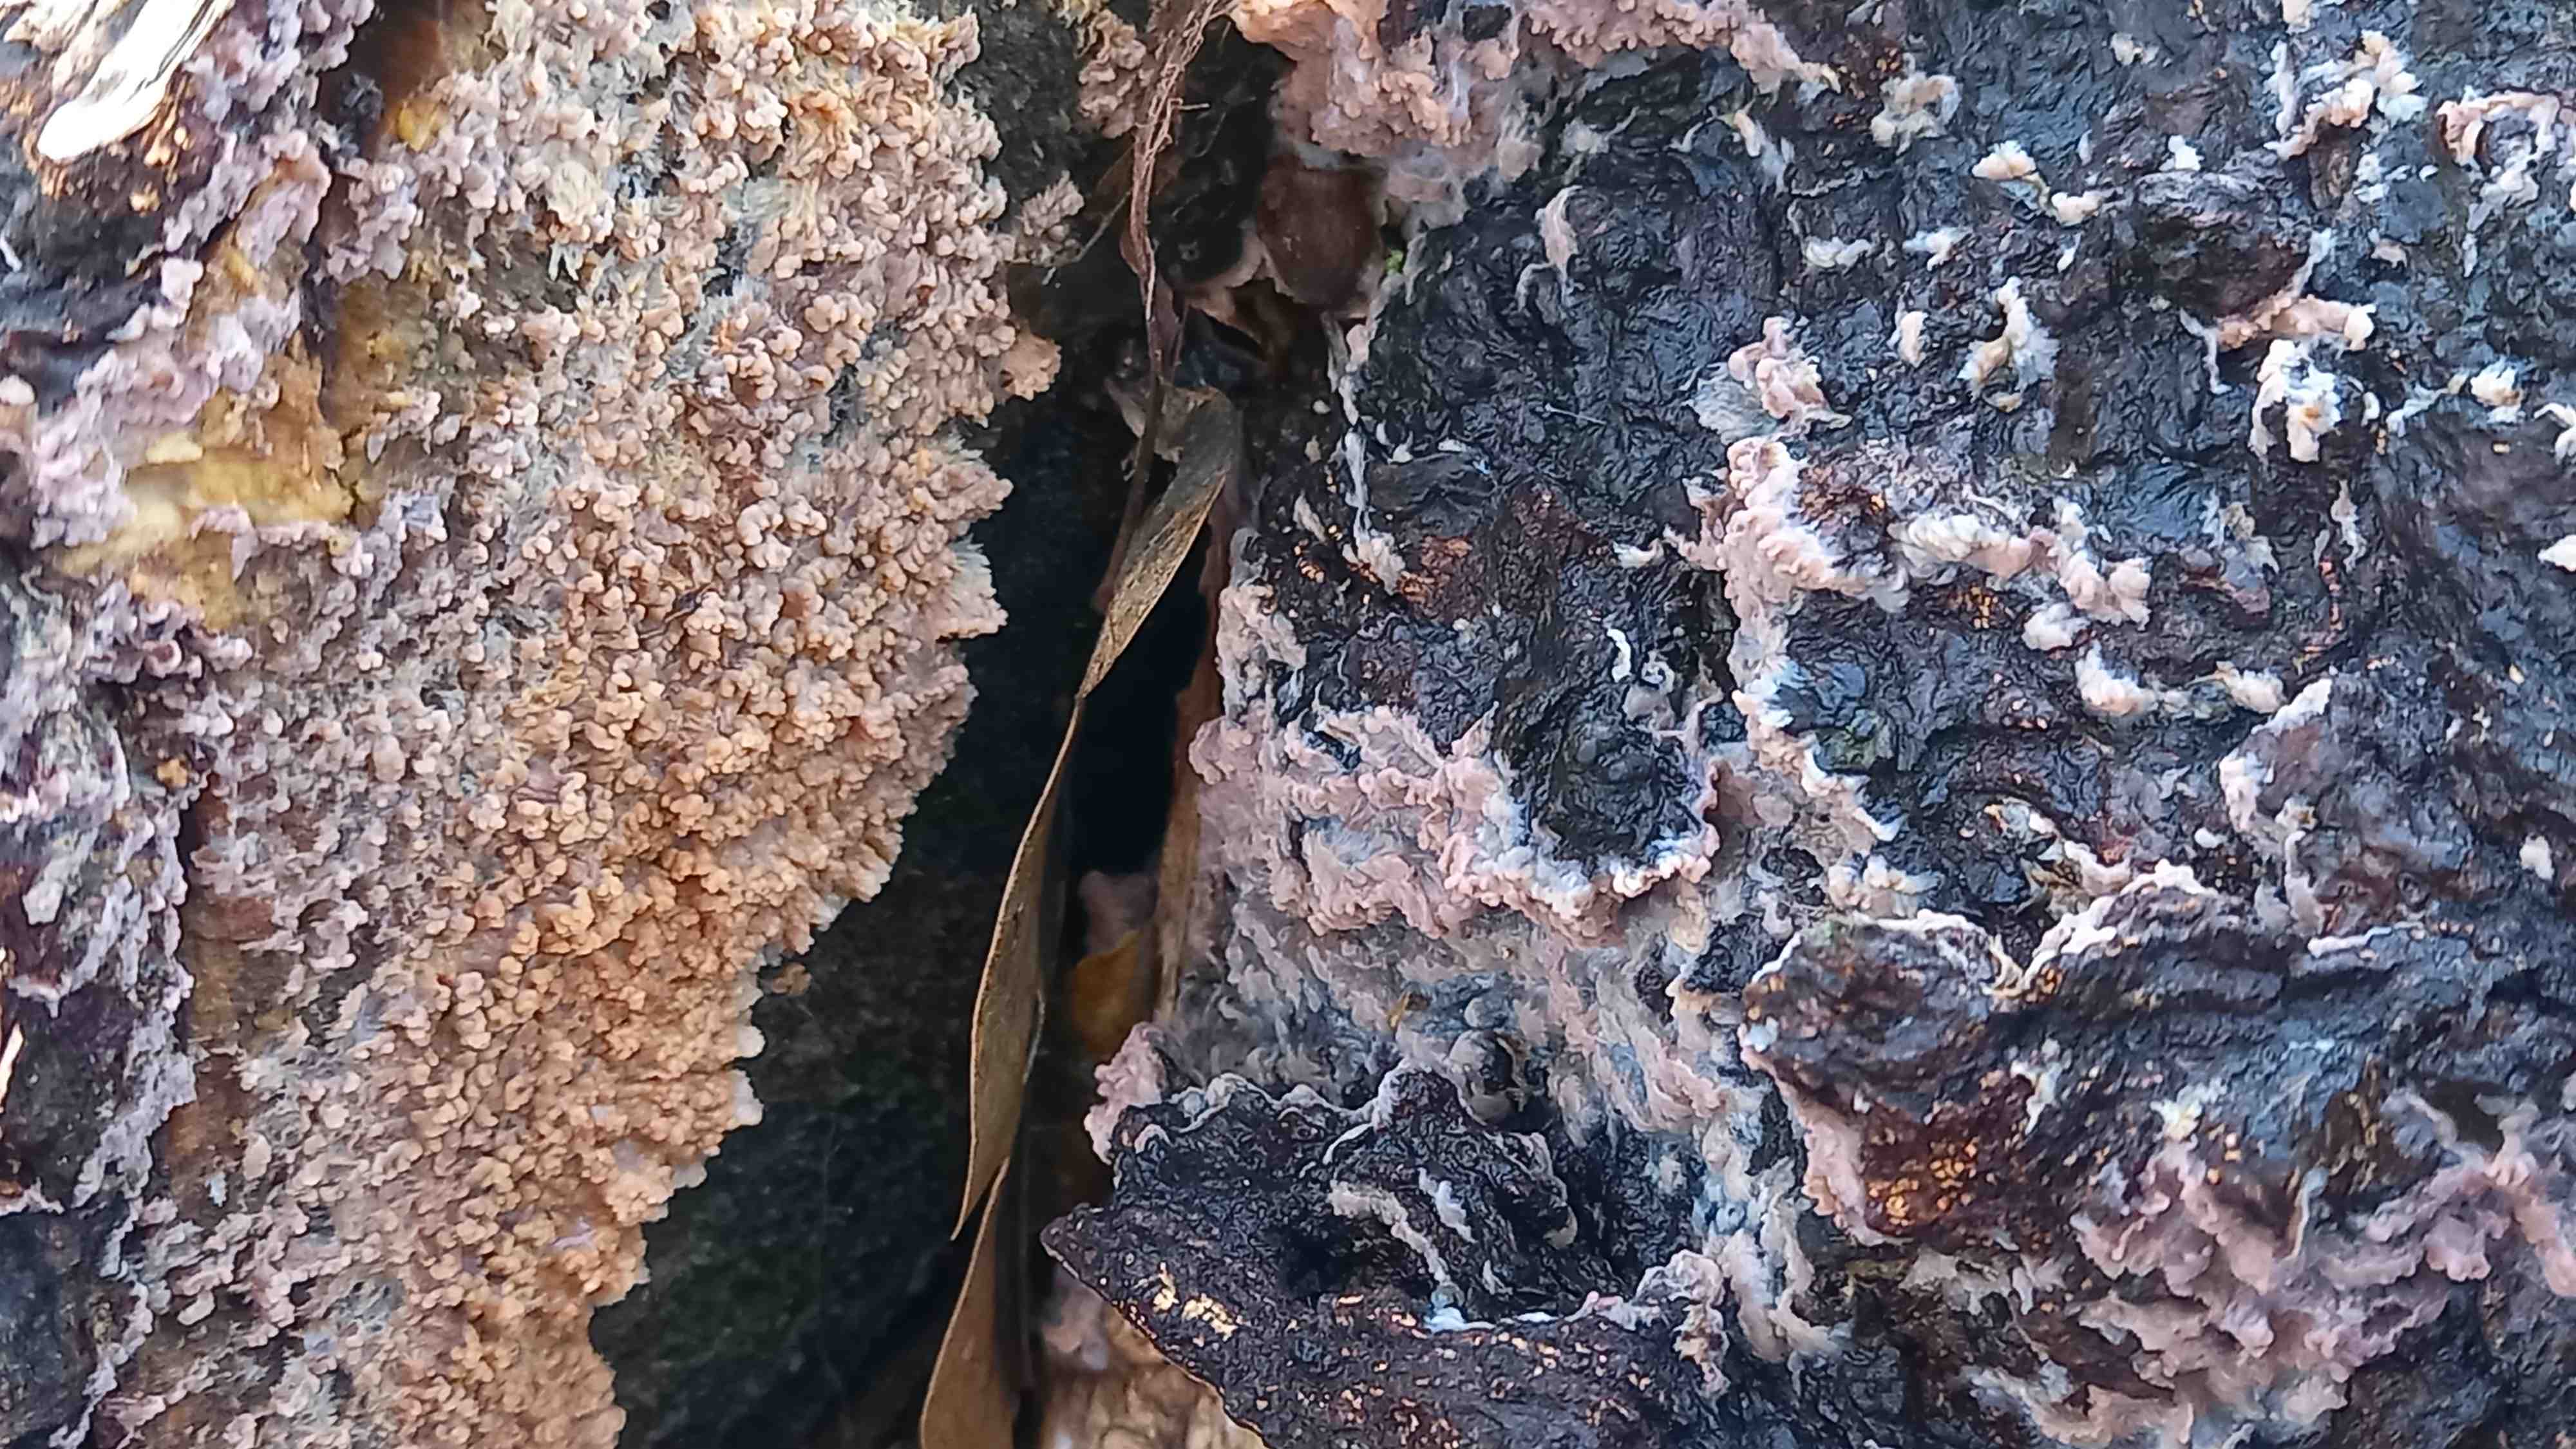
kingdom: Fungi
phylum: Basidiomycota
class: Agaricomycetes
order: Polyporales
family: Meruliaceae
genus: Phlebia
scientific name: Phlebia radiata
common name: stråle-åresvamp
